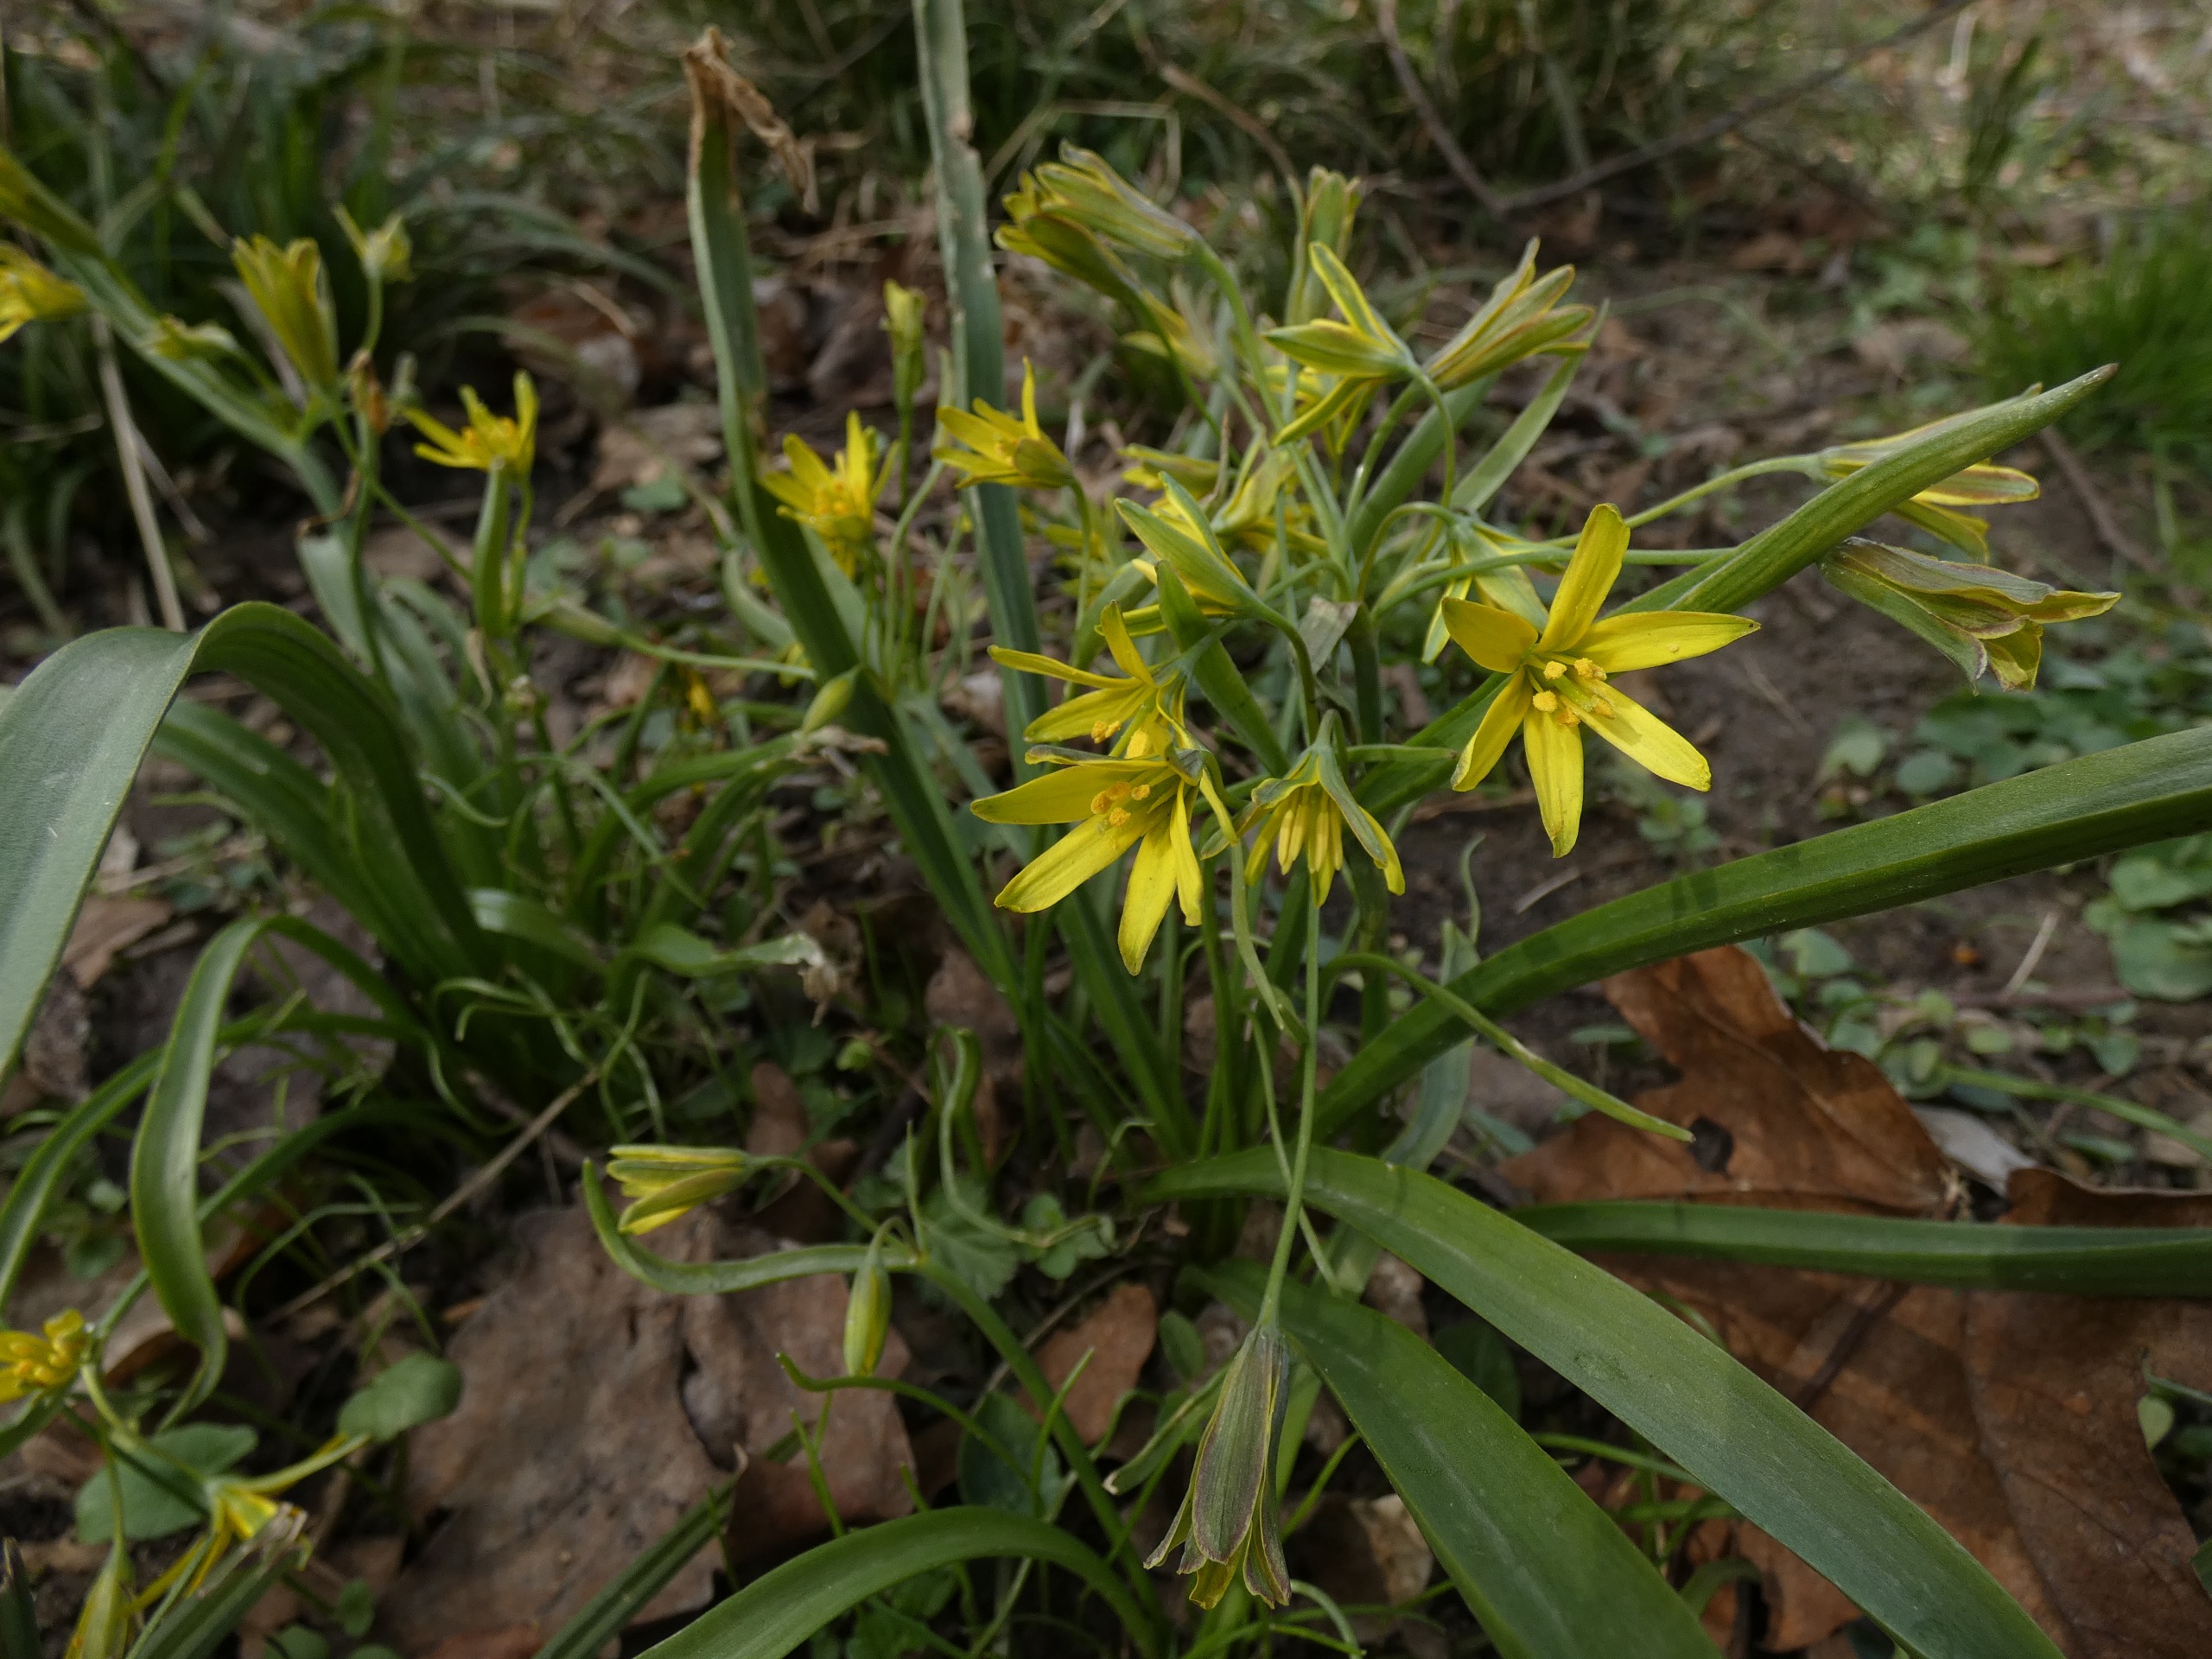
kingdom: Plantae
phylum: Tracheophyta
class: Liliopsida
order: Liliales
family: Liliaceae
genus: Gagea
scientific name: Gagea lutea
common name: Almindelig guldstjerne
